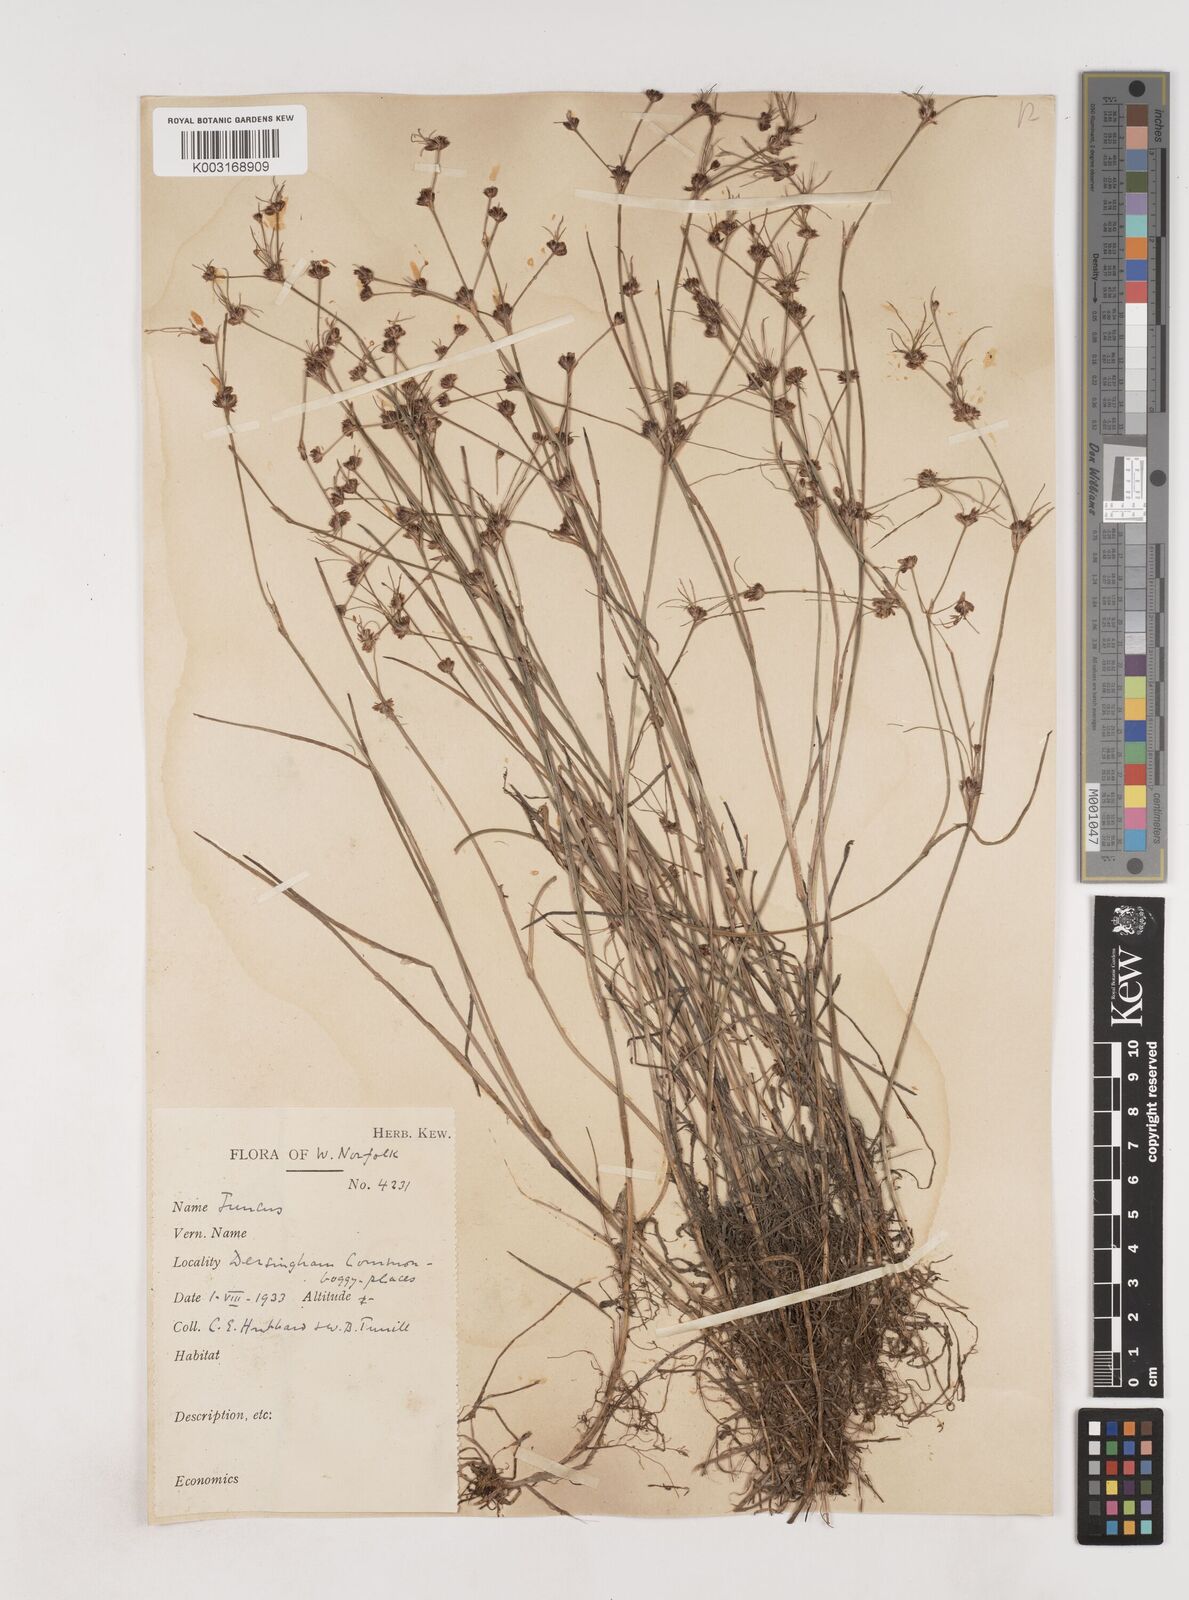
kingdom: Plantae
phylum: Tracheophyta
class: Liliopsida
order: Poales
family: Juncaceae
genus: Juncus
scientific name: Juncus bulbosus
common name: Bulbous rush
